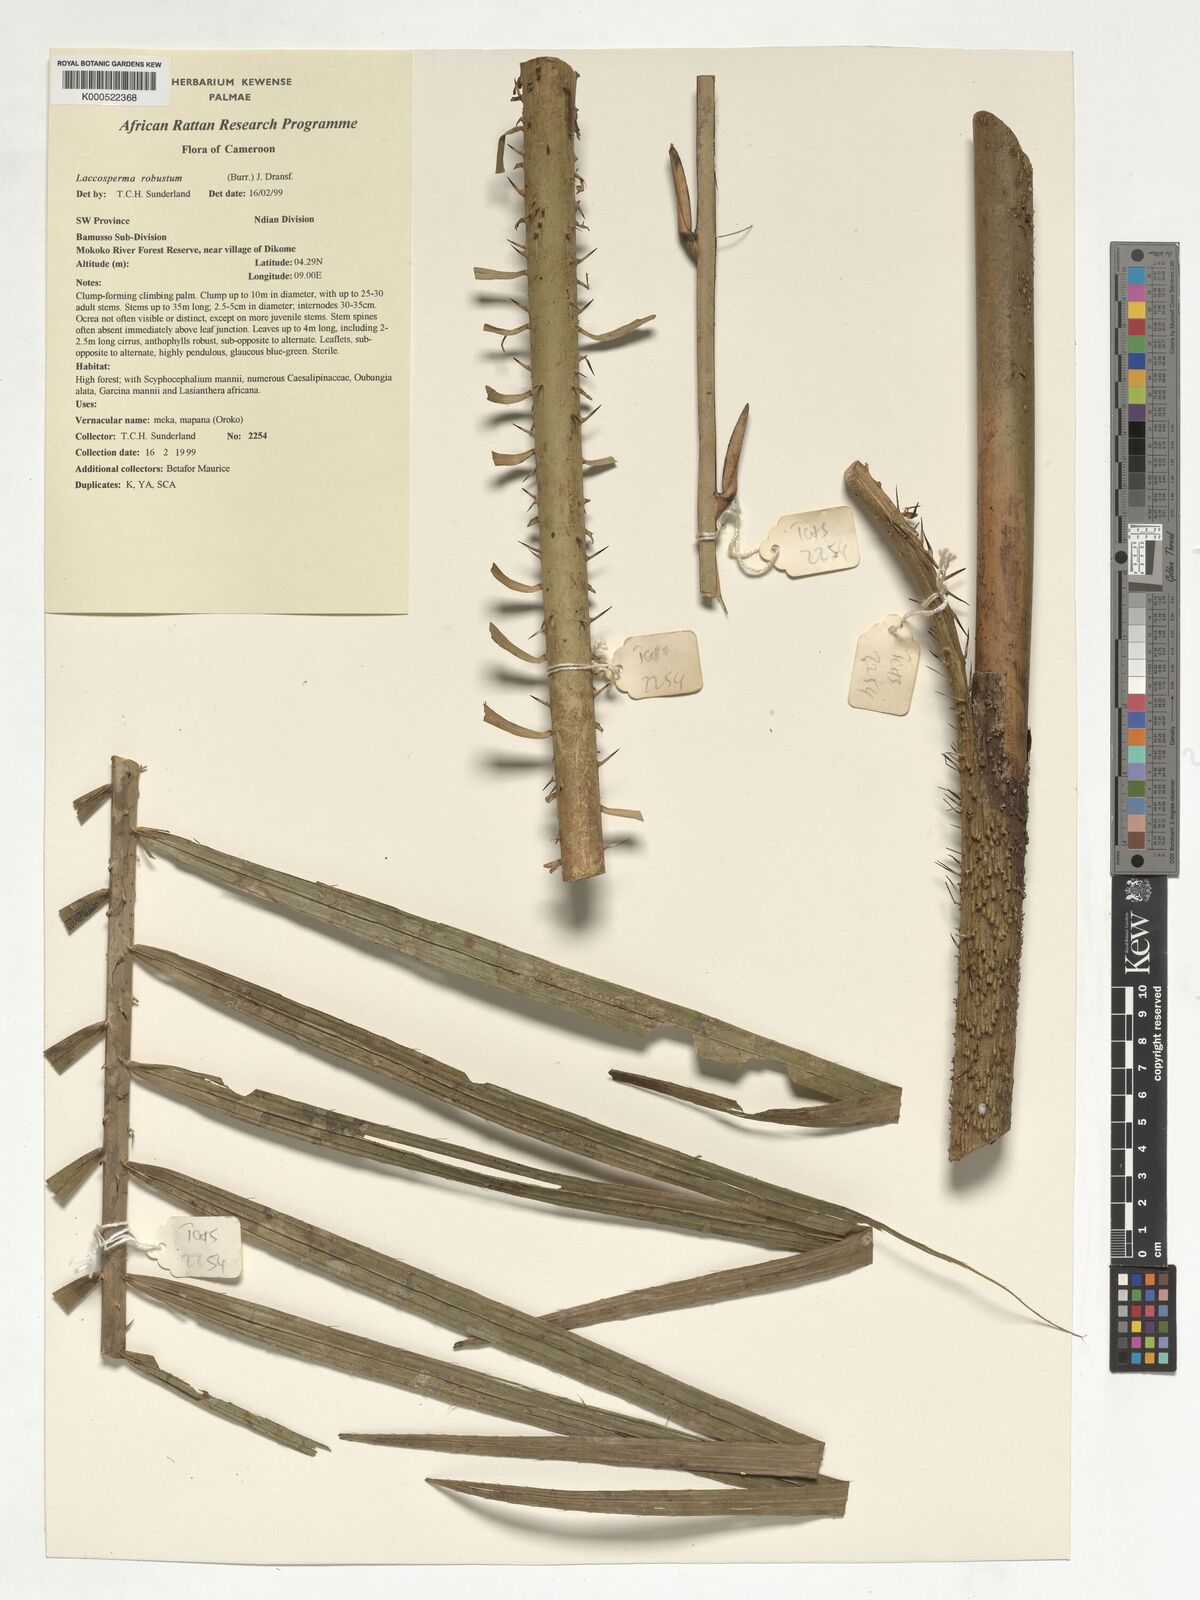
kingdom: Plantae
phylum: Tracheophyta
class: Liliopsida
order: Arecales
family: Arecaceae
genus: Laccosperma
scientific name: Laccosperma robustum
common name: Rattan
